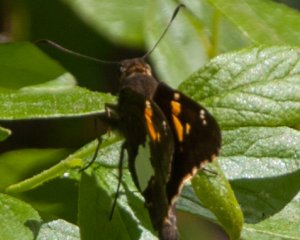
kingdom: Animalia
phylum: Arthropoda
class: Insecta
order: Lepidoptera
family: Hesperiidae
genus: Epargyreus
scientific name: Epargyreus clarus
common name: Silver-spotted Skipper
